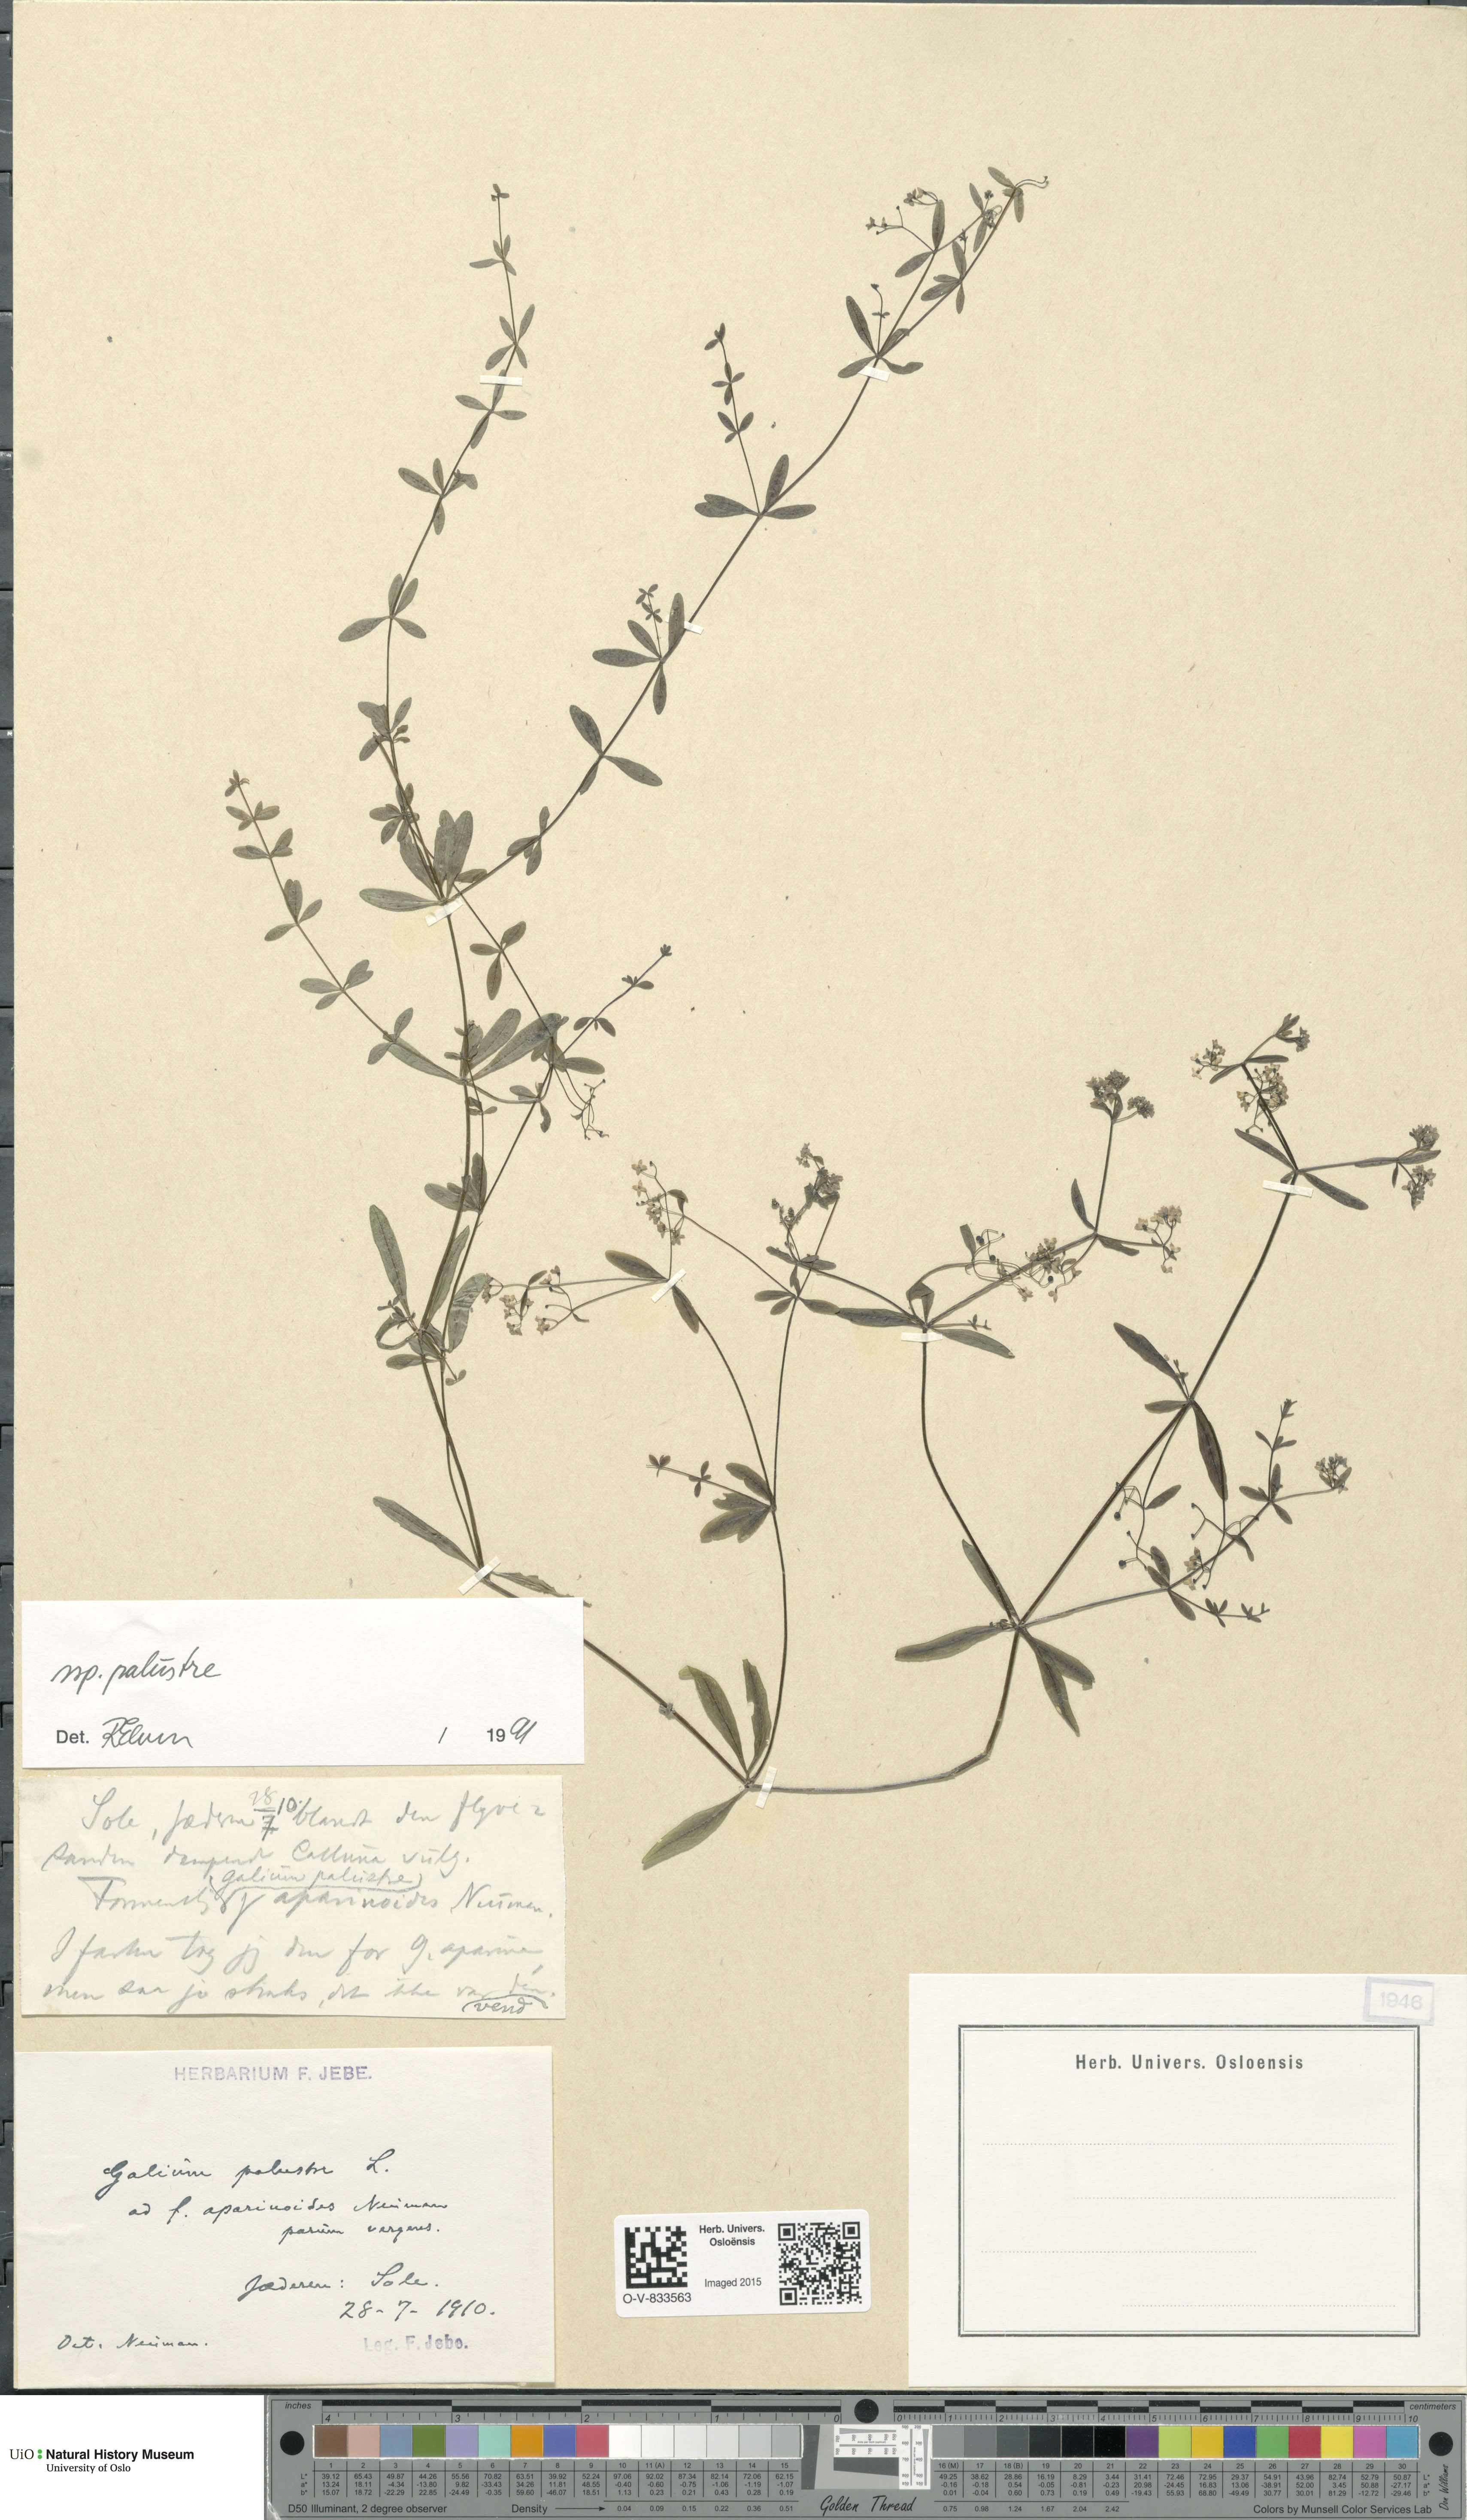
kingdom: Plantae
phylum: Tracheophyta
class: Magnoliopsida
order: Gentianales
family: Rubiaceae
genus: Galium
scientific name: Galium palustre
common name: Common marsh-bedstraw
